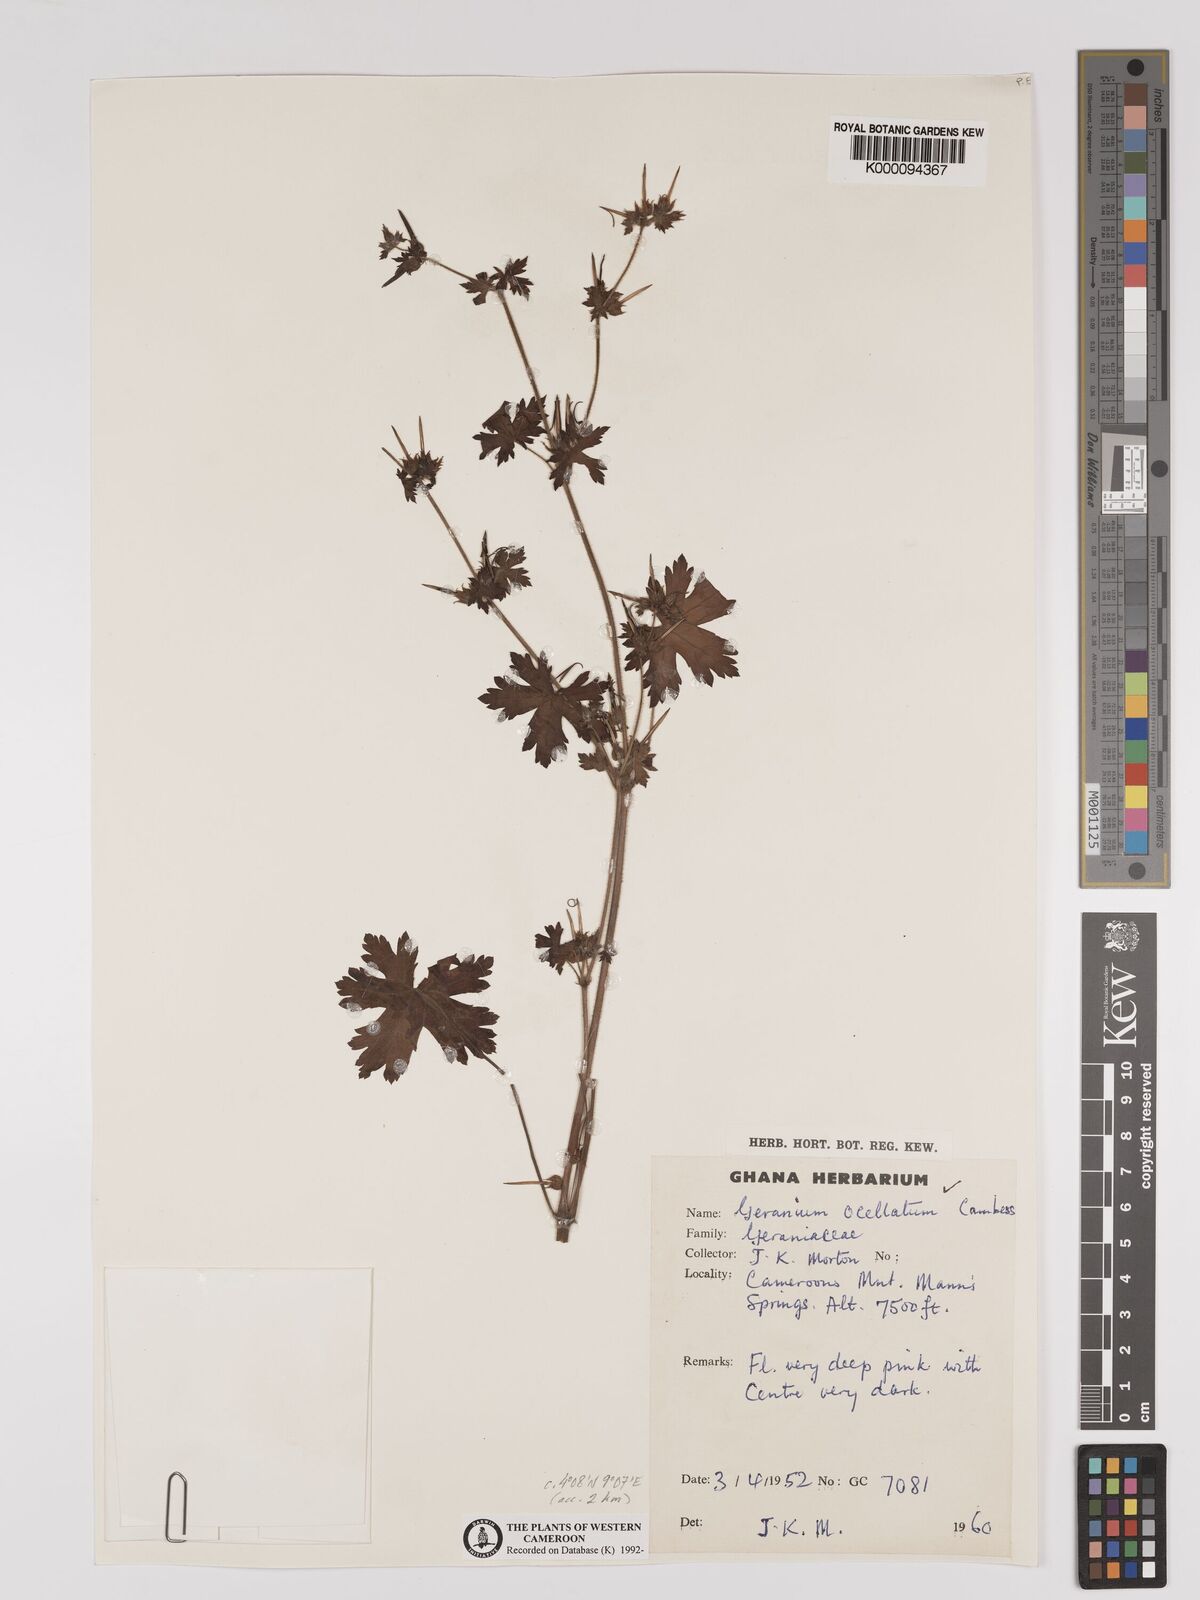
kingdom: Plantae
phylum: Tracheophyta
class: Magnoliopsida
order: Geraniales
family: Geraniaceae
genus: Geranium
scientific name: Geranium mascatense
